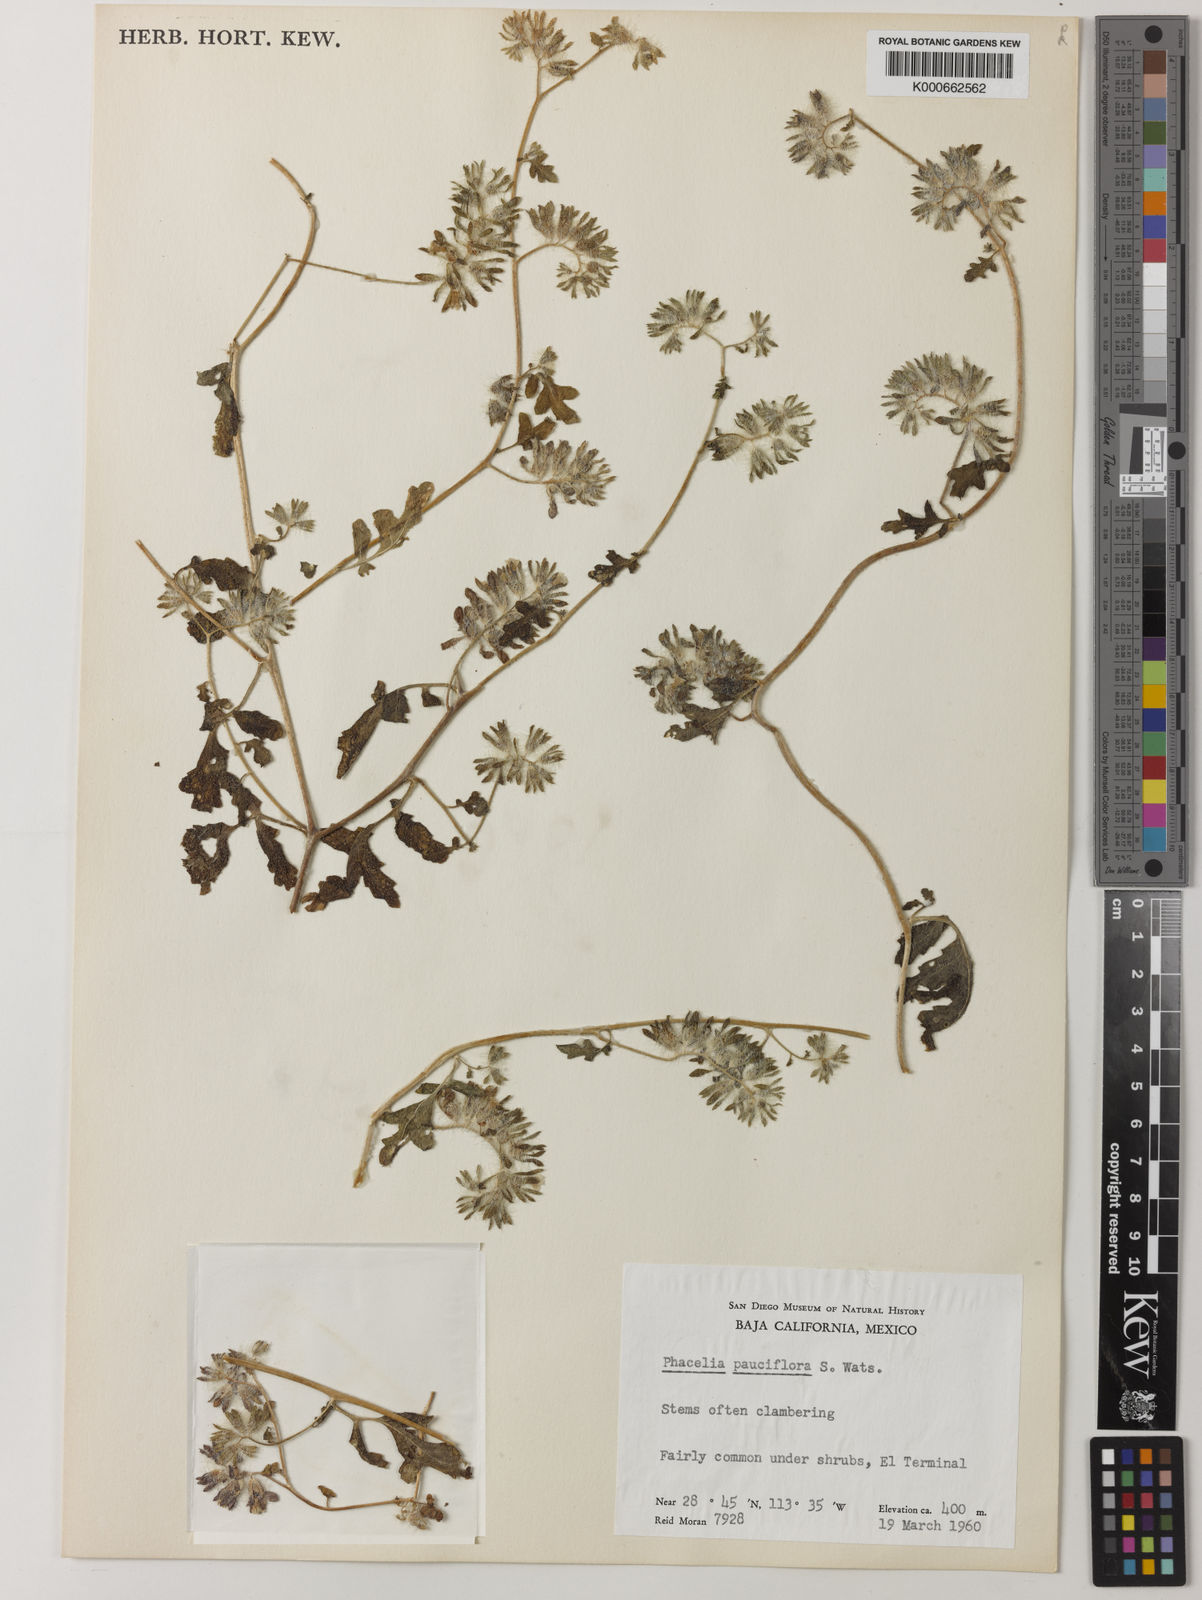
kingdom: Plantae
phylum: Tracheophyta
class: Magnoliopsida
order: Boraginales
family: Hydrophyllaceae
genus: Phacelia
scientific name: Phacelia pauciflora
